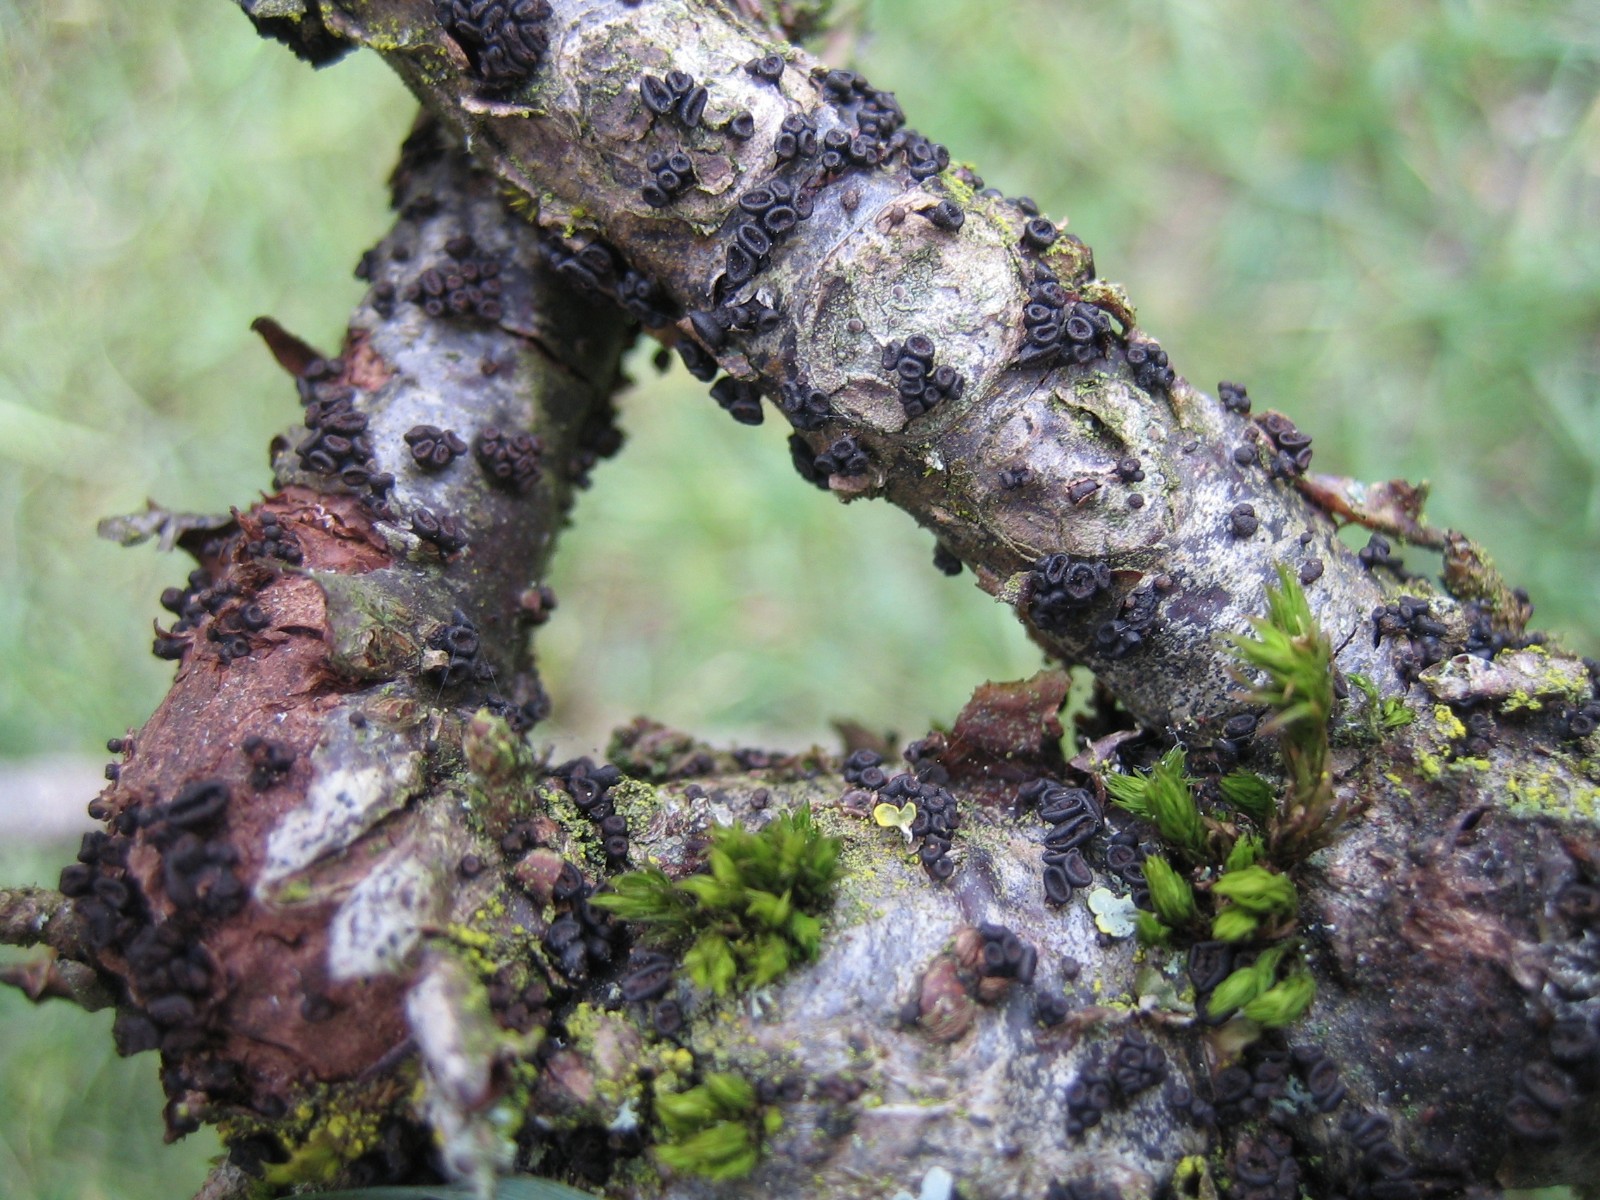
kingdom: Fungi
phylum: Ascomycota
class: Leotiomycetes
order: Helotiales
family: Godroniaceae
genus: Godronia
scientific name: Godronia ribis
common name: ribs-urneskive
